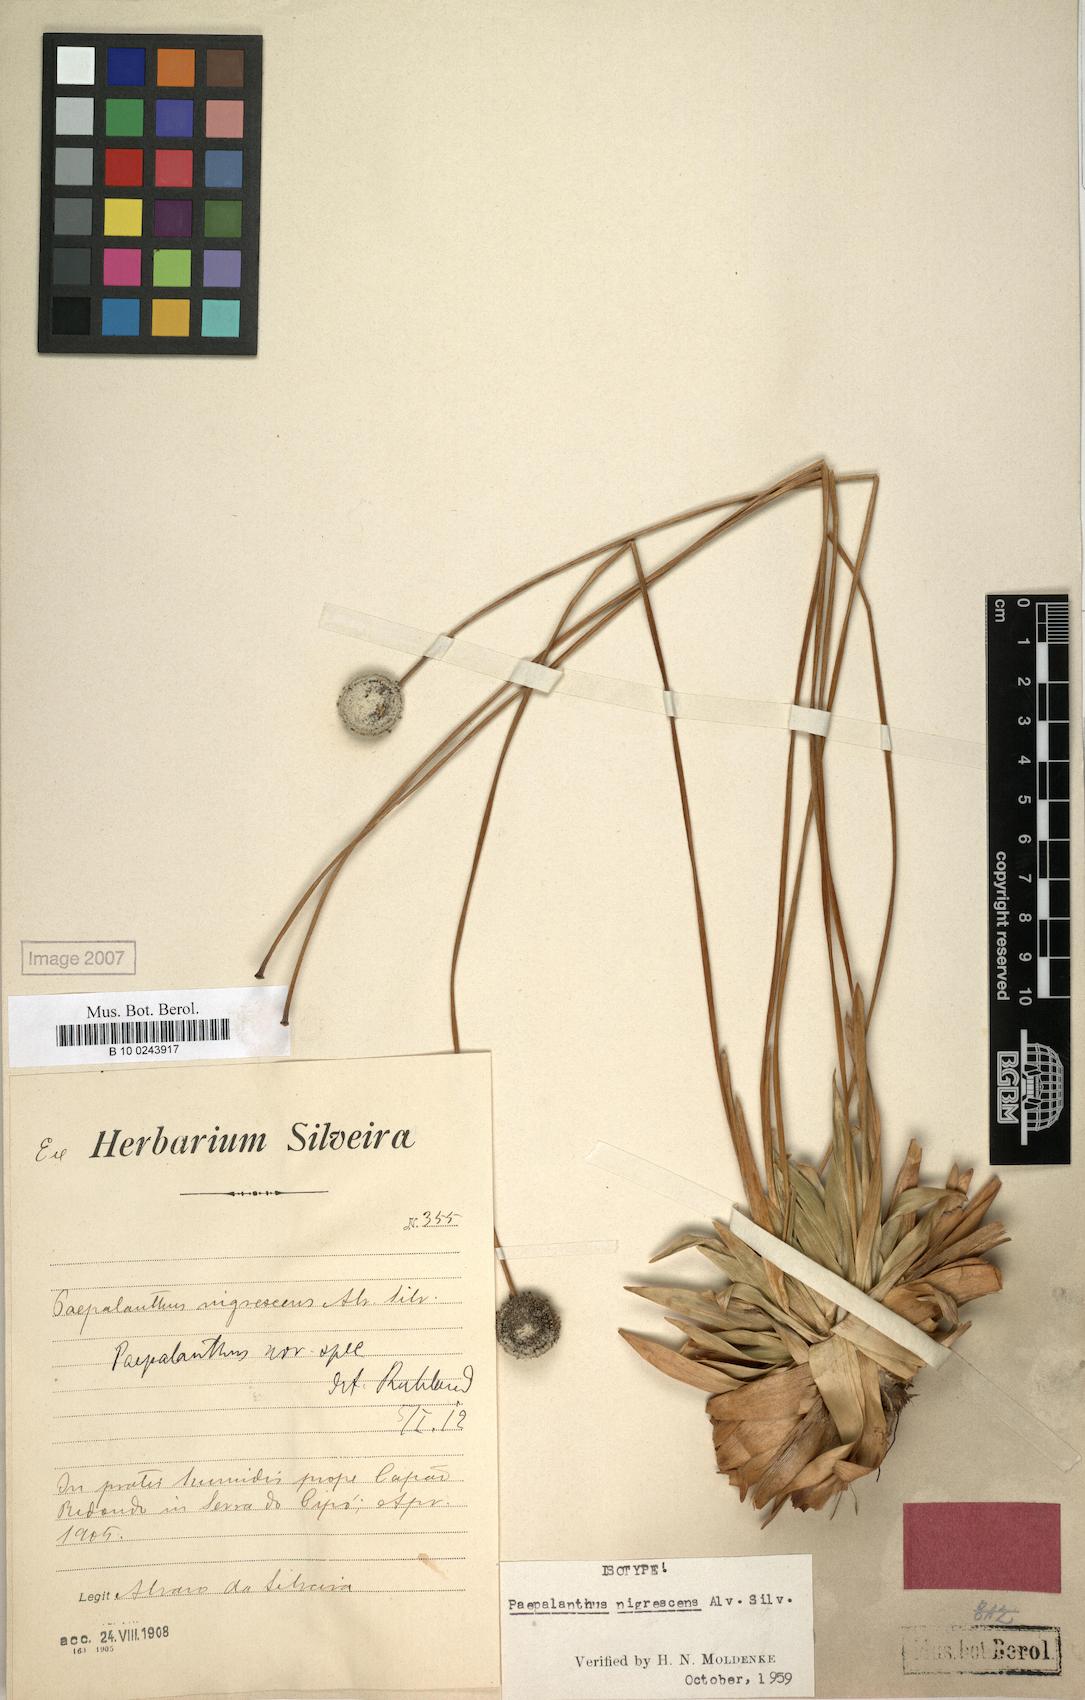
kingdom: Plantae
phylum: Tracheophyta
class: Liliopsida
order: Poales
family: Eriocaulaceae
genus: Paepalanthus
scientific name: Paepalanthus nigrescens
